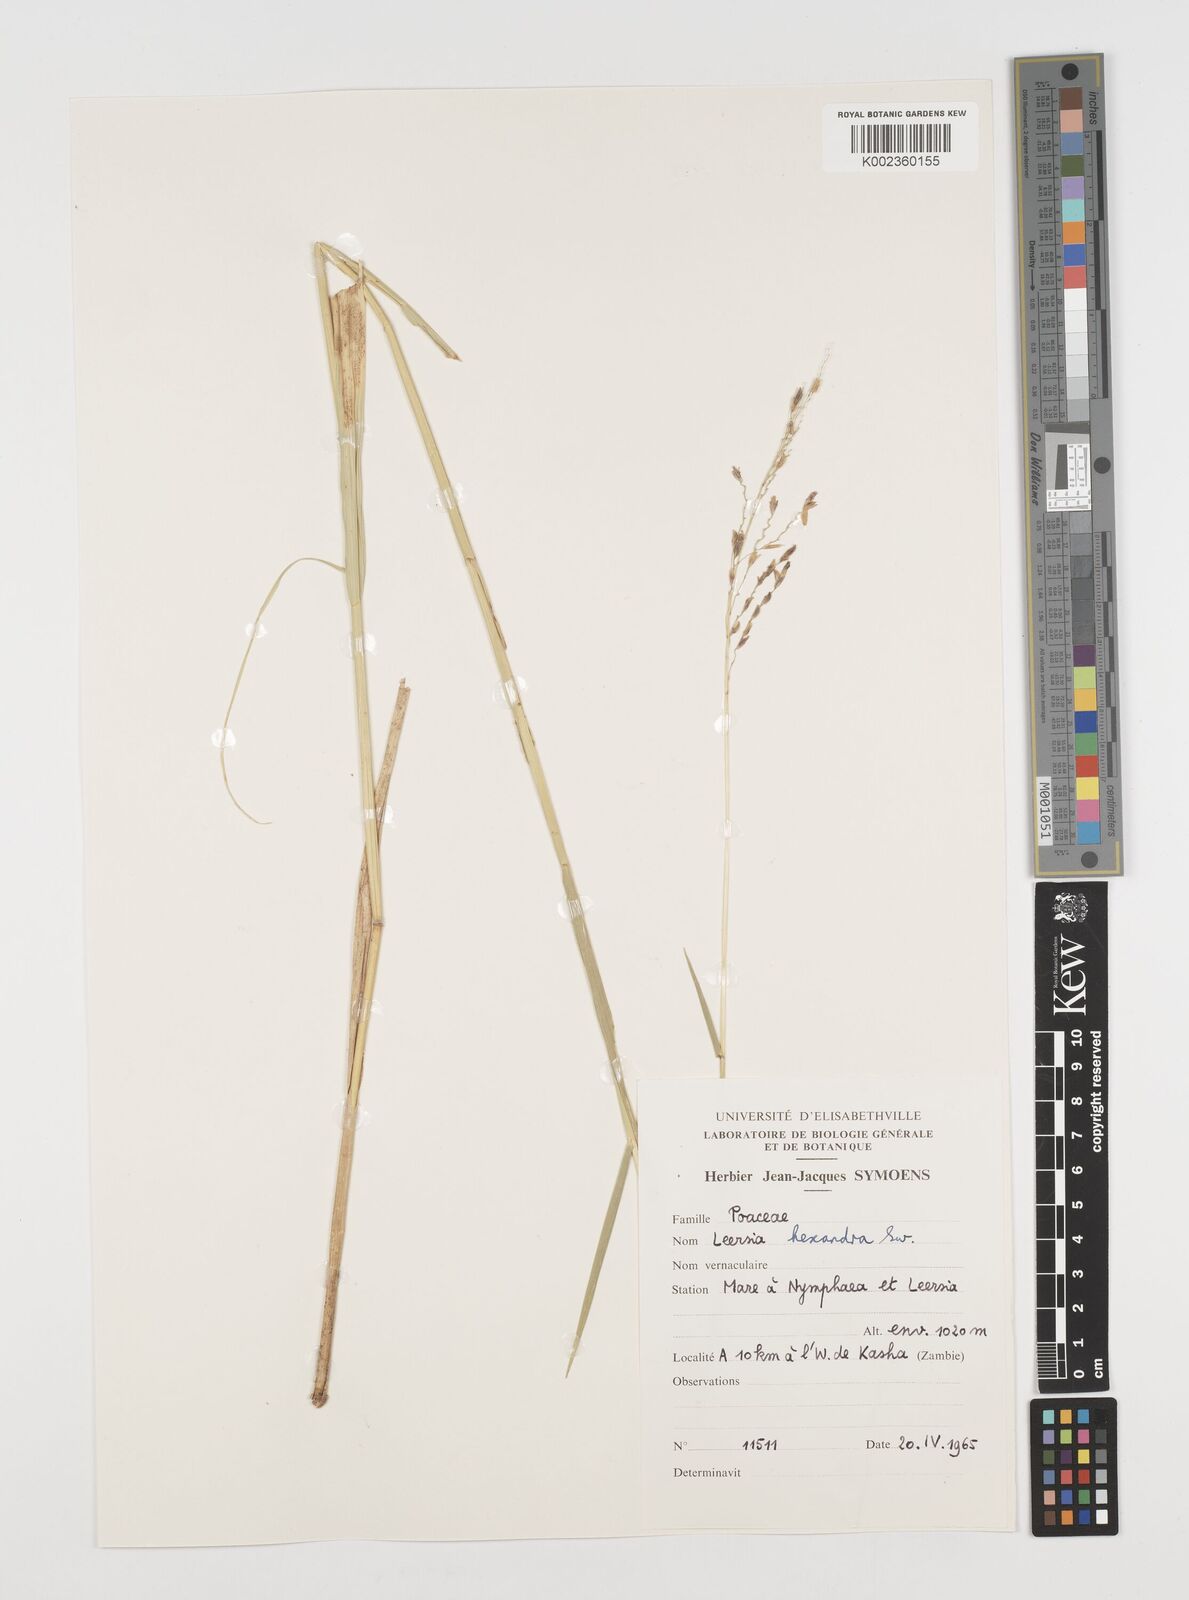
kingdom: Plantae
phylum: Tracheophyta
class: Liliopsida
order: Poales
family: Poaceae
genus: Leersia
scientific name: Leersia hexandra
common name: Southern cut grass
